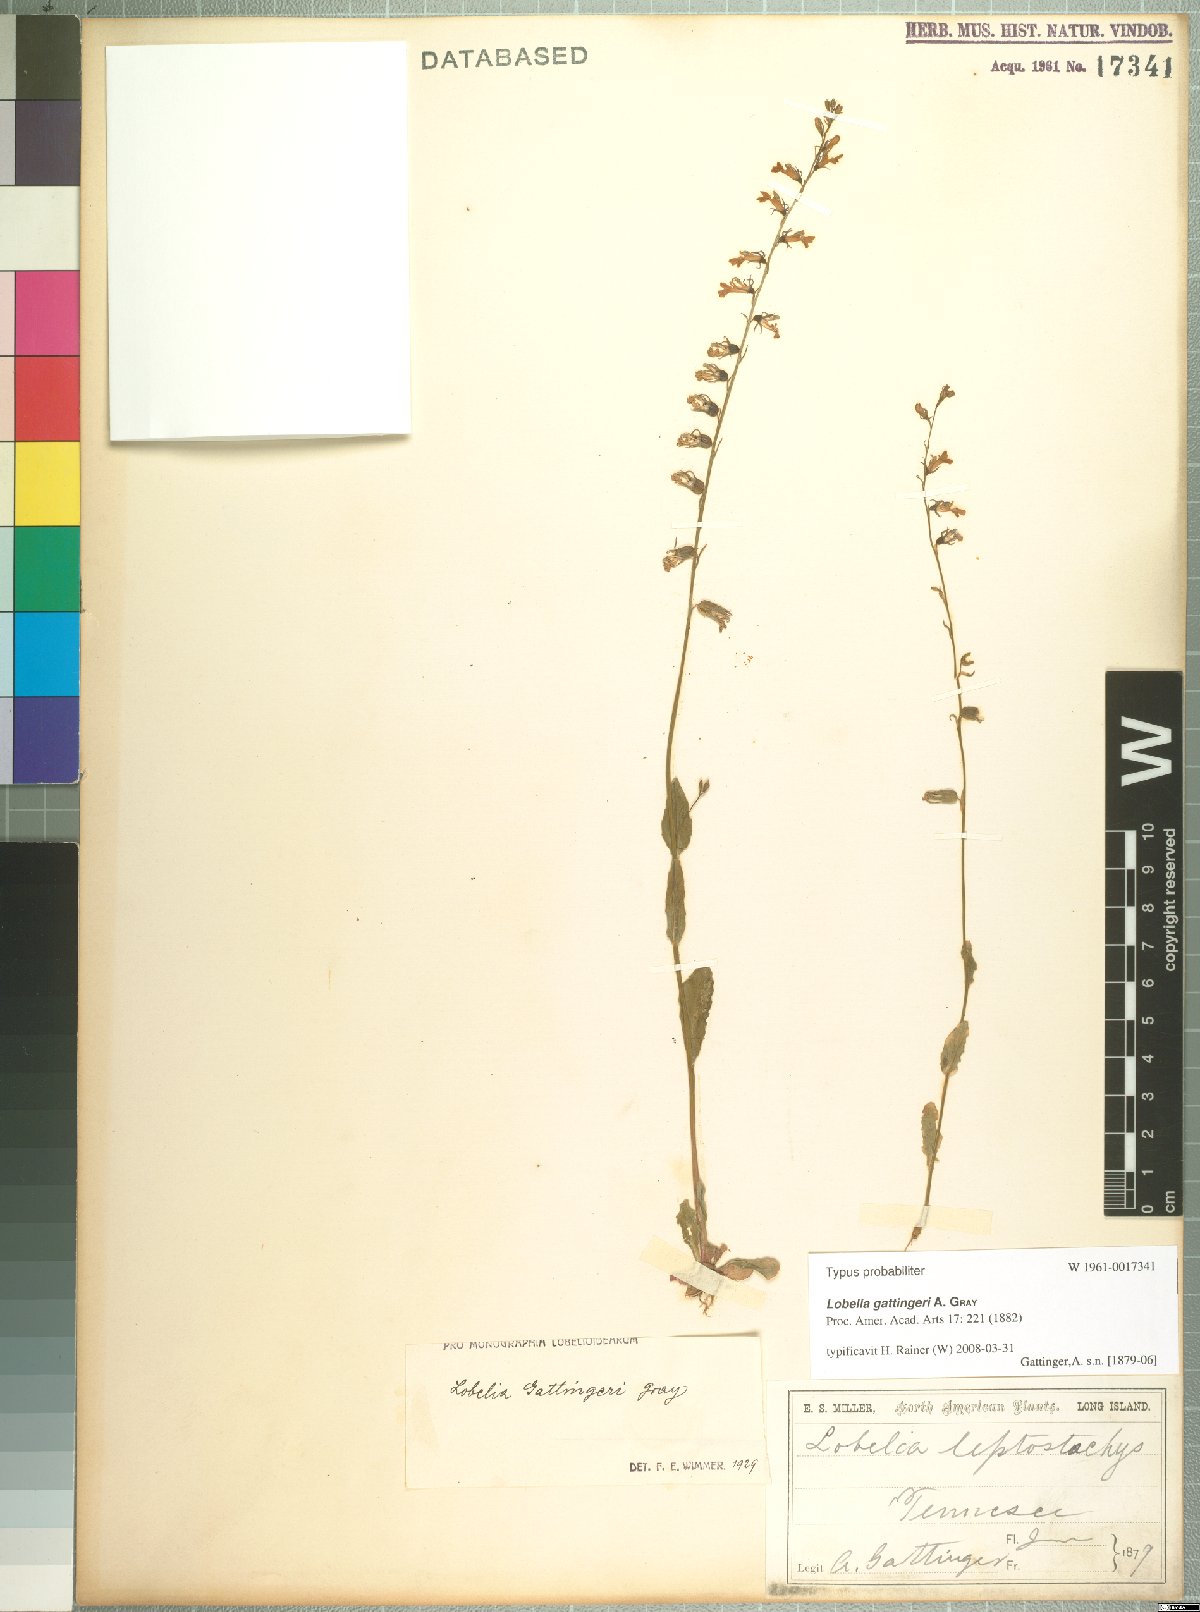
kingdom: Plantae
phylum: Tracheophyta
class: Magnoliopsida
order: Asterales
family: Campanulaceae
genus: Lobelia
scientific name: Lobelia gattingeri
